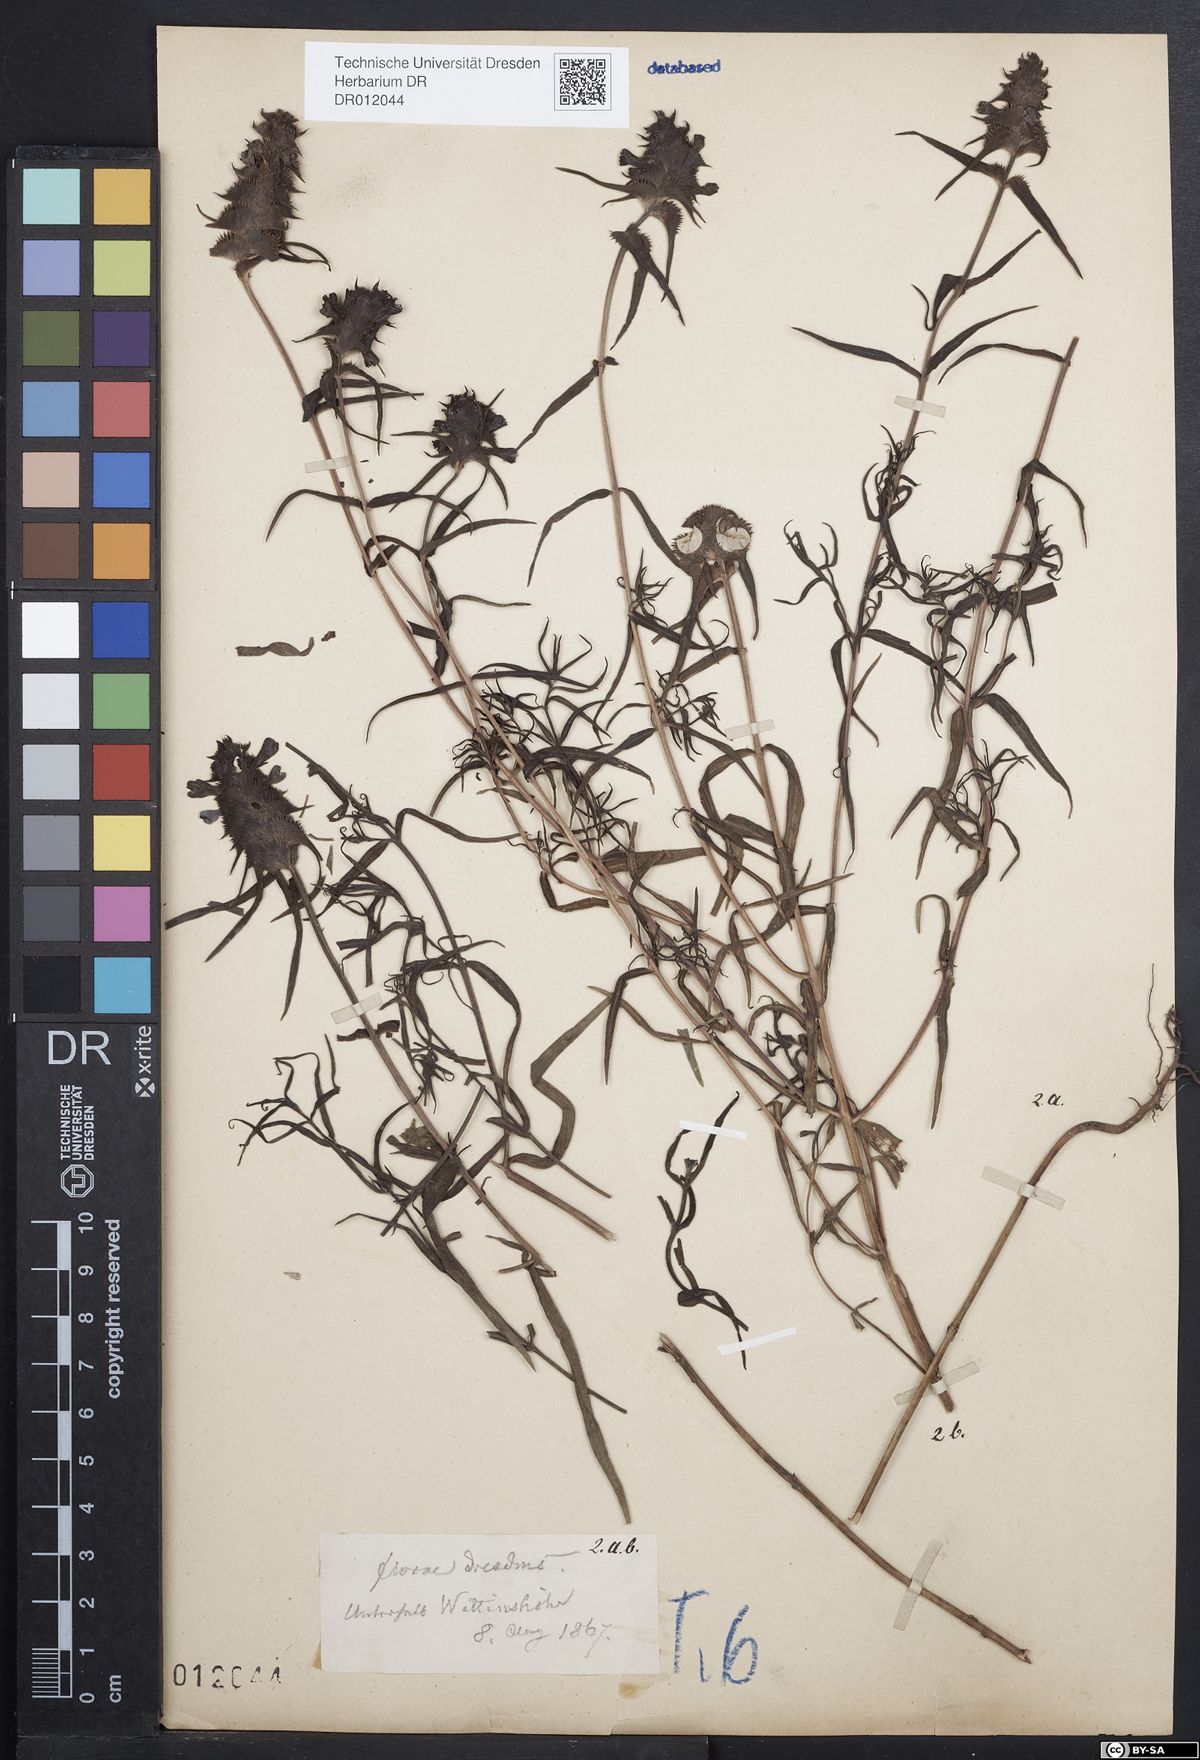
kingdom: Plantae
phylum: Tracheophyta
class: Magnoliopsida
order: Lamiales
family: Orobanchaceae
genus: Melampyrum
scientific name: Melampyrum cristatum
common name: Crested cow-wheat
